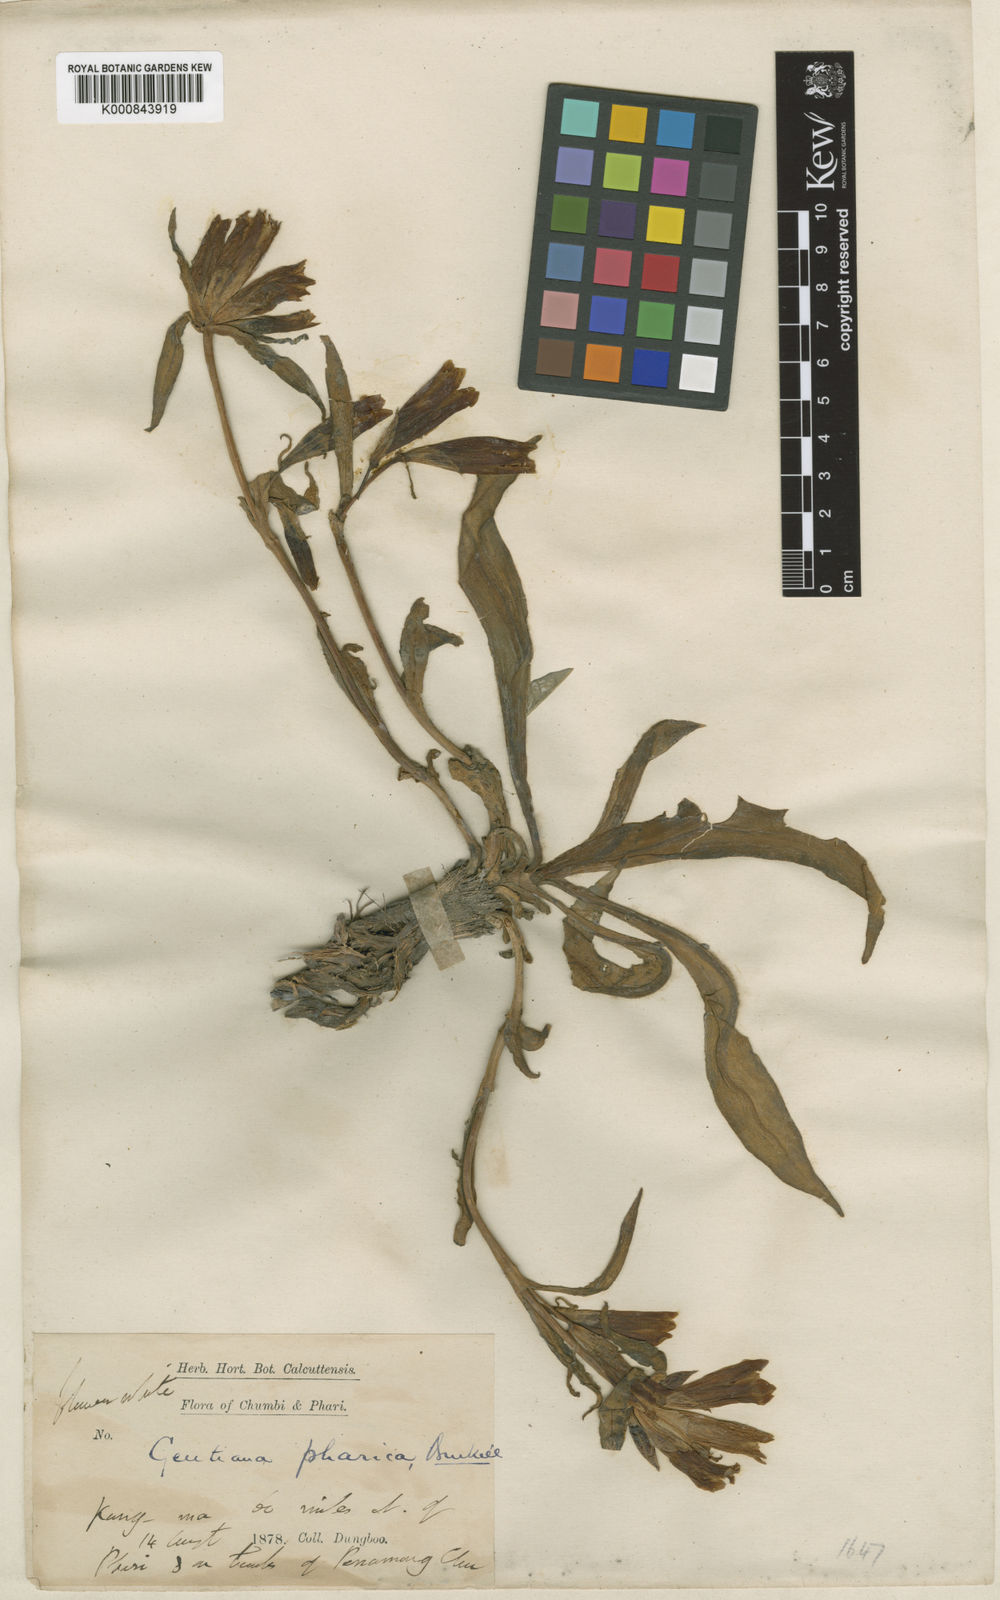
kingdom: Plantae
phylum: Tracheophyta
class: Magnoliopsida
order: Gentianales
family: Gentianaceae
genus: Gentiana
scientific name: Gentiana robusta
